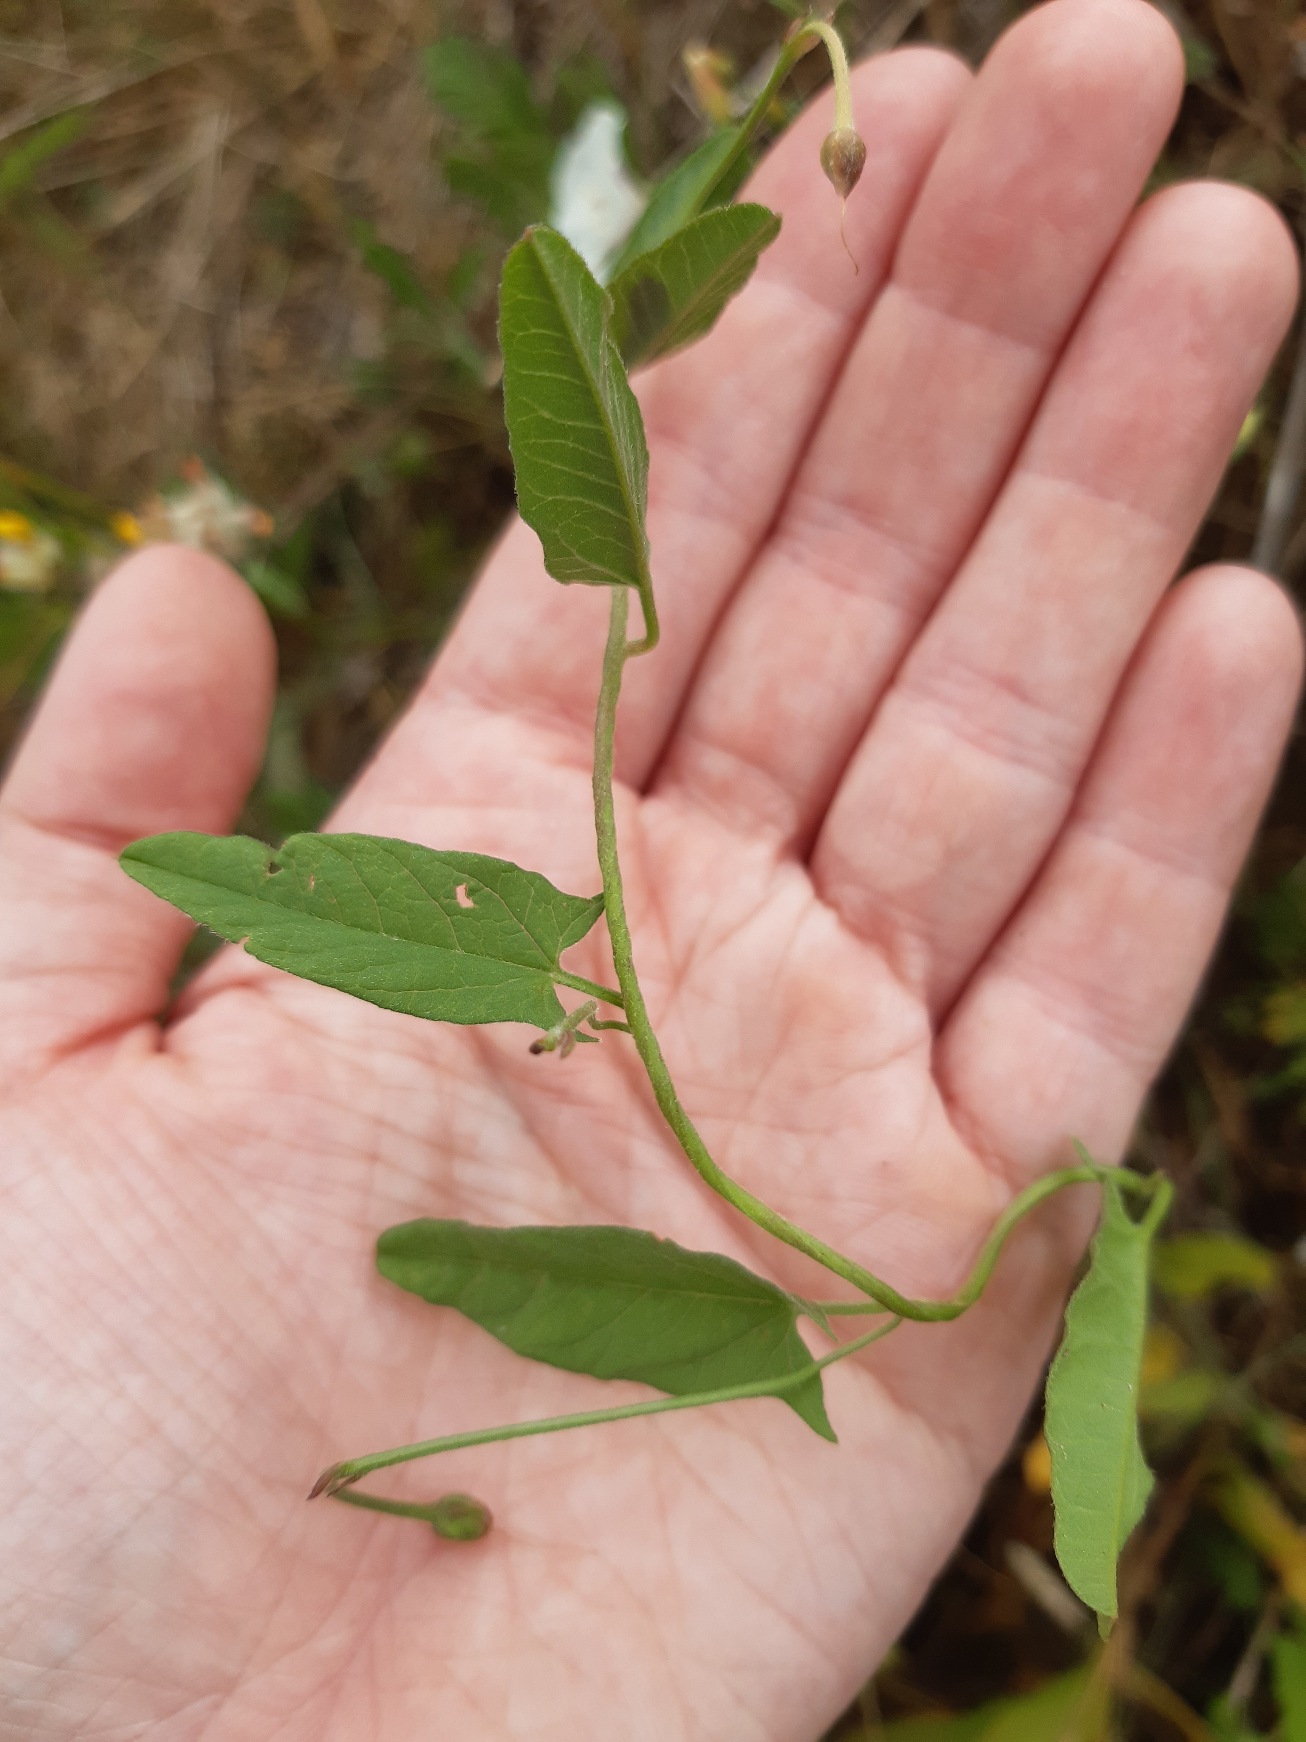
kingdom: Plantae
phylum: Tracheophyta
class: Magnoliopsida
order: Solanales
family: Convolvulaceae
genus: Convolvulus
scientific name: Convolvulus arvensis
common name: Ager-snerle
